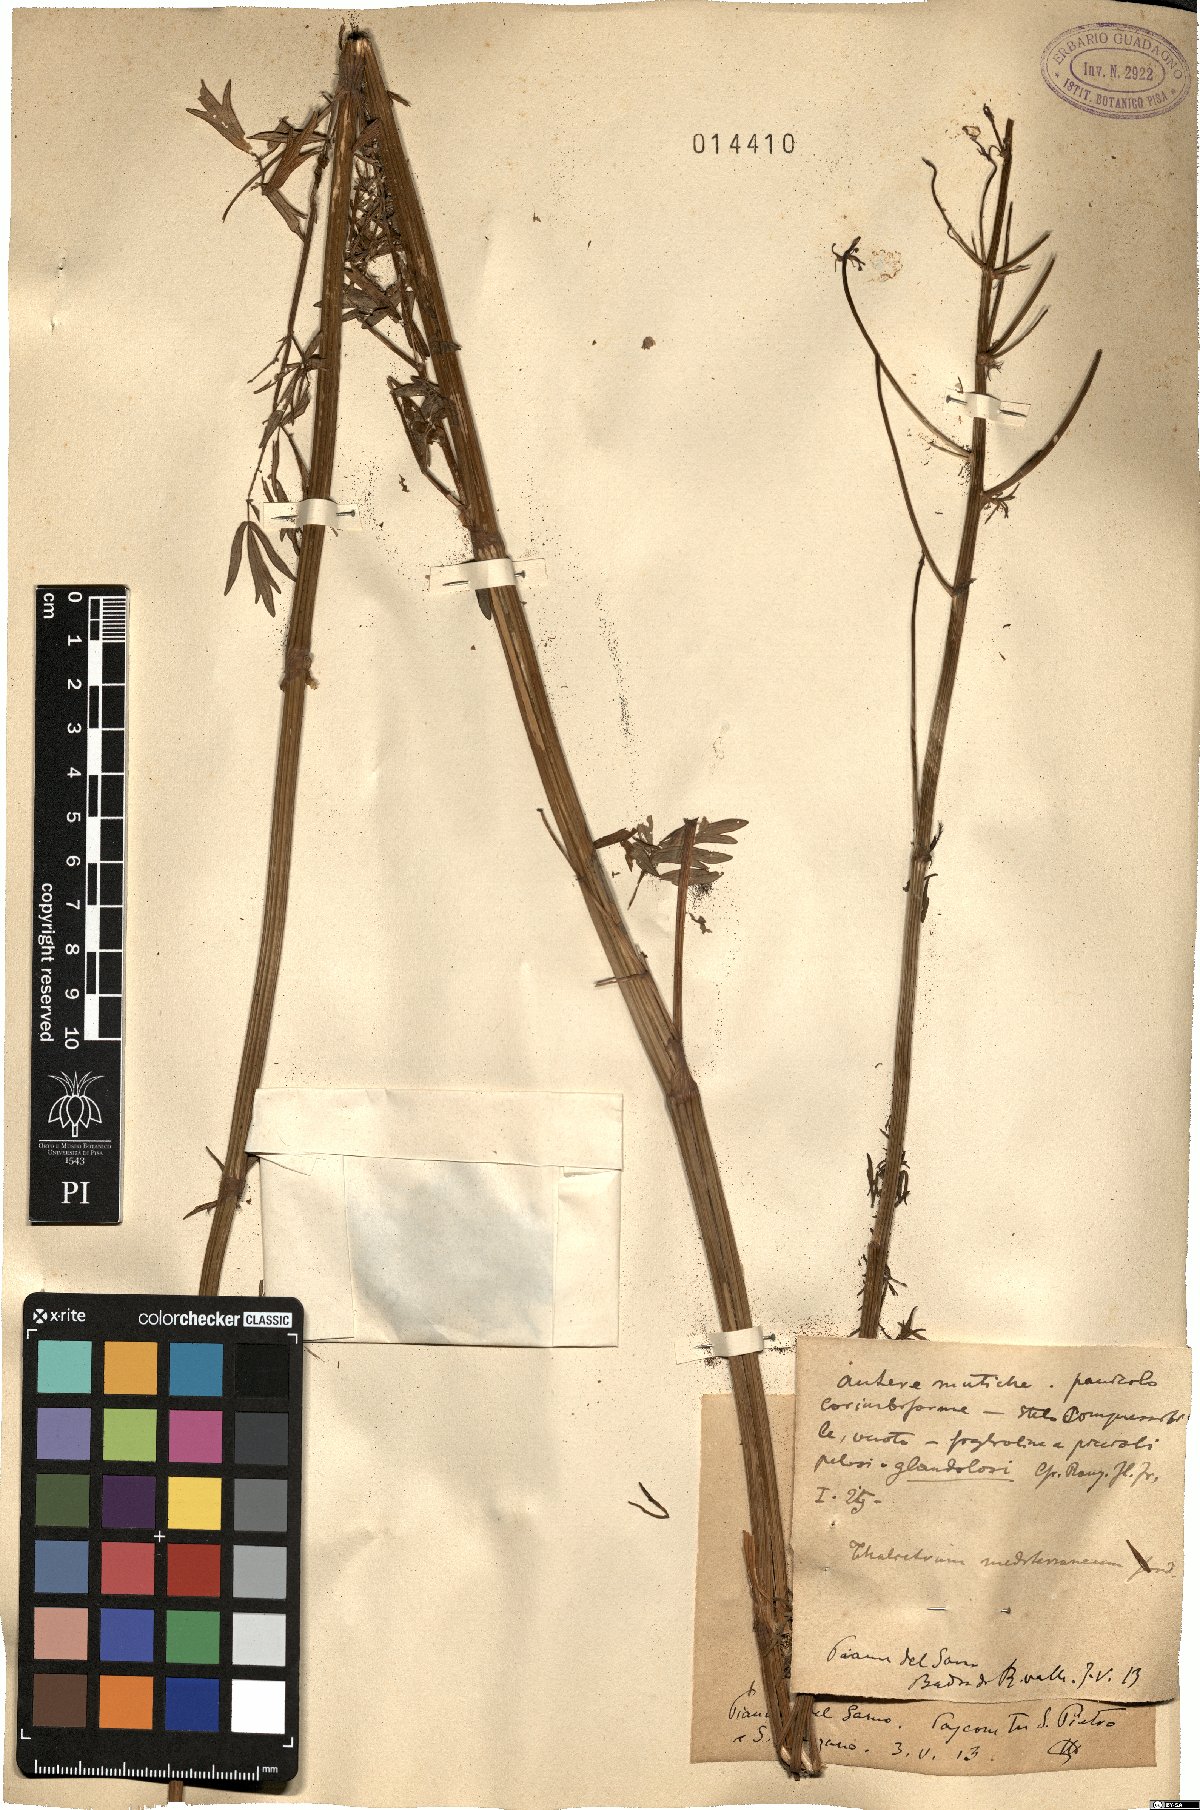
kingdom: Plantae
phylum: Tracheophyta
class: Magnoliopsida
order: Ranunculales
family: Ranunculaceae
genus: Thalictrum
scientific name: Thalictrum flavum
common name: Common meadow-rue
